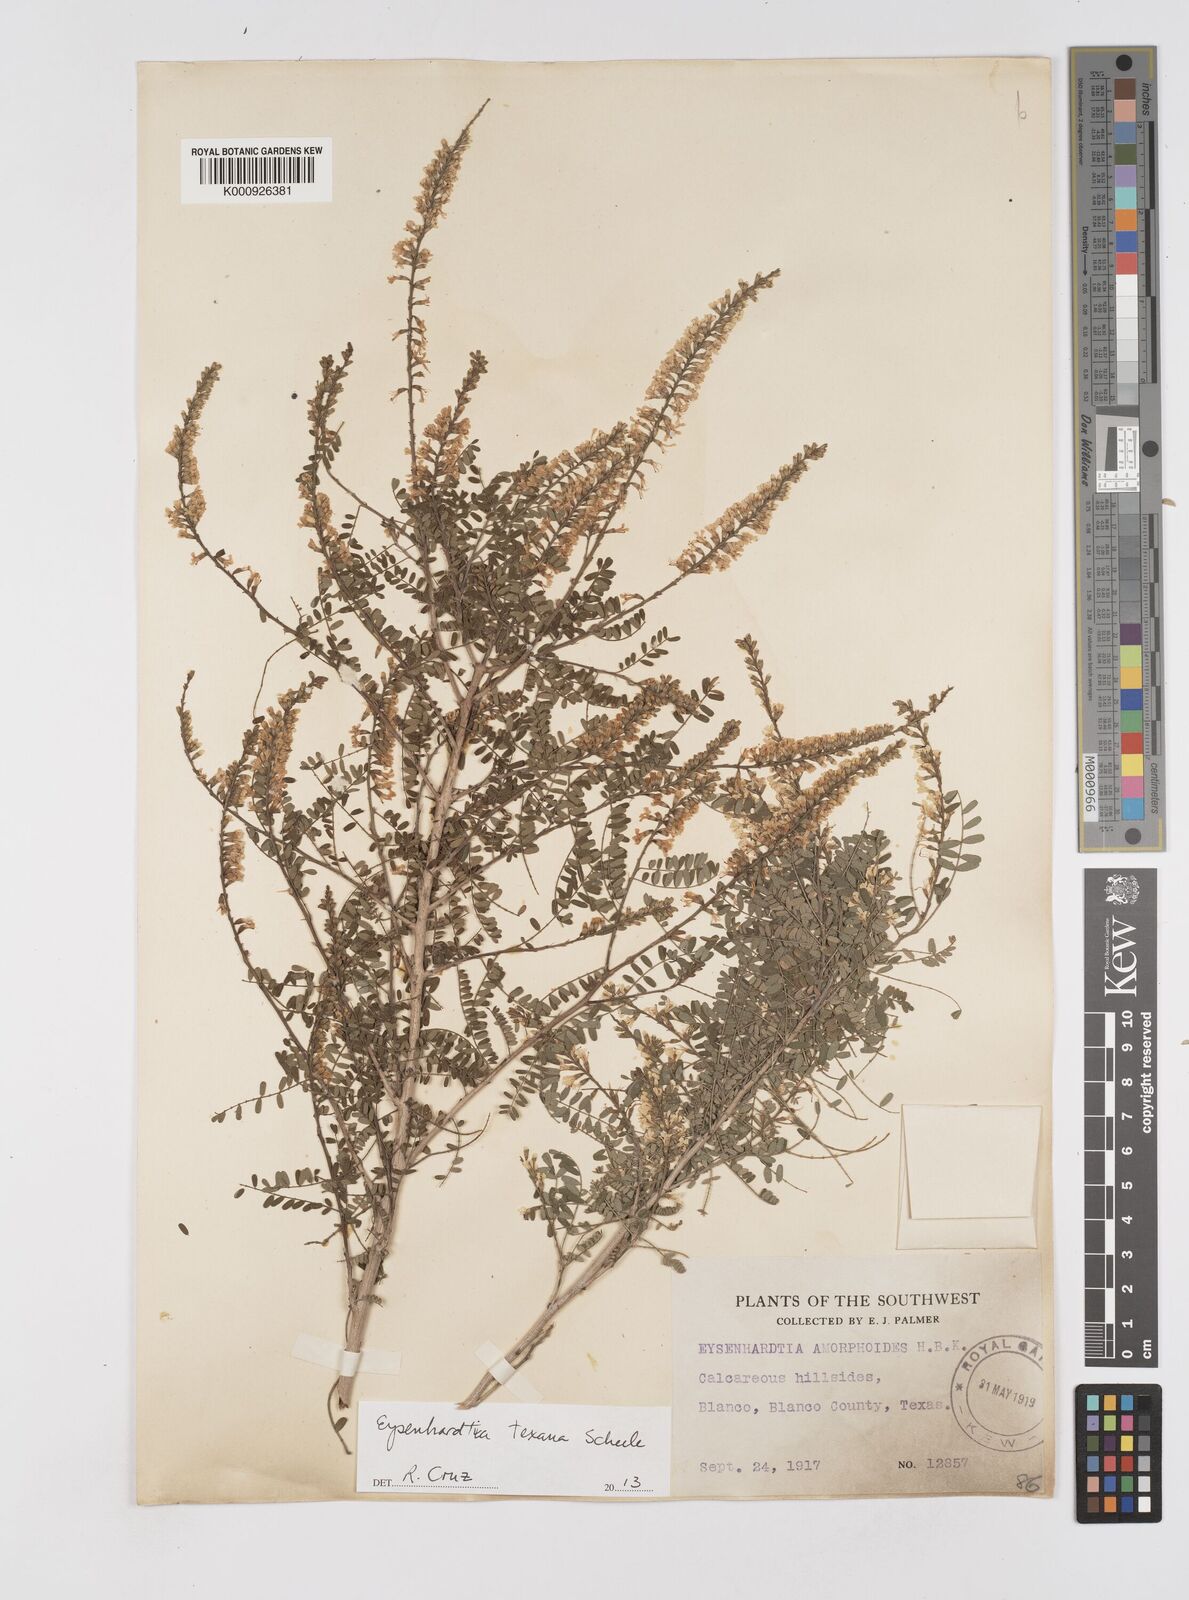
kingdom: Plantae
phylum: Tracheophyta
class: Magnoliopsida
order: Fabales
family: Fabaceae
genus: Eysenhardtia
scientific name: Eysenhardtia texana
